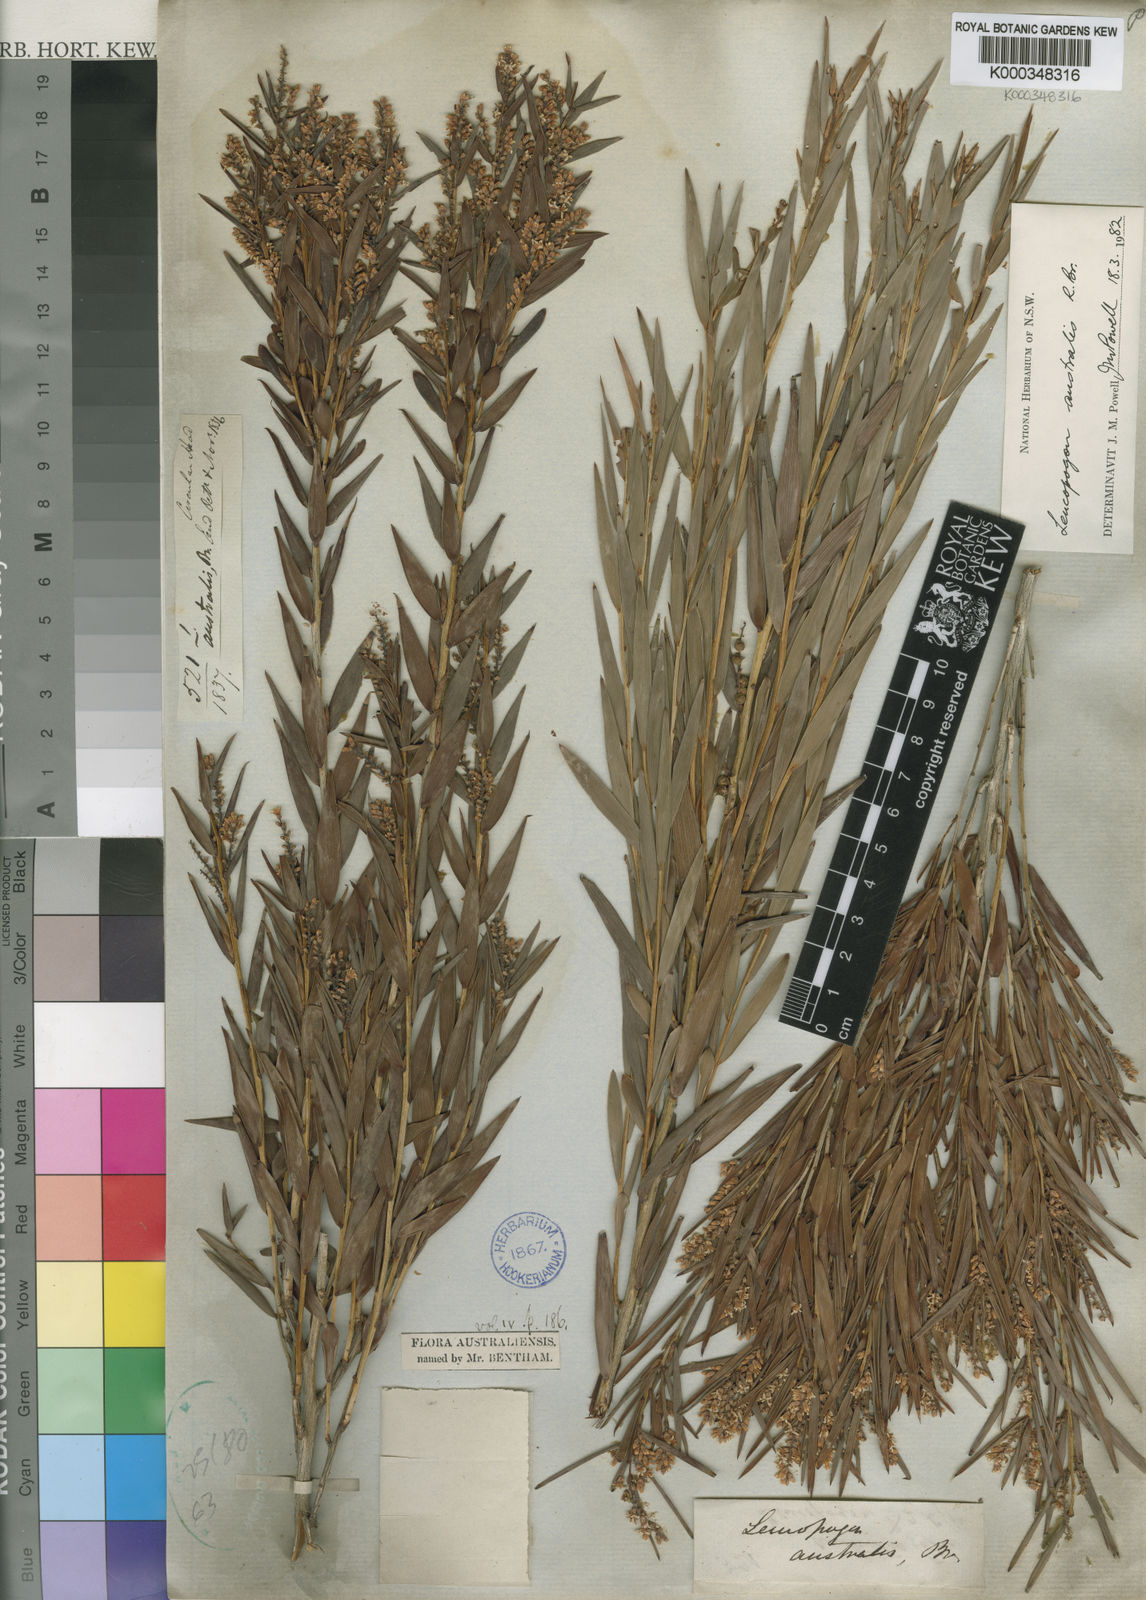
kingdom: Plantae
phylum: Tracheophyta
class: Magnoliopsida
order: Ericales
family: Ericaceae
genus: Leucopogon
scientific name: Leucopogon australis
